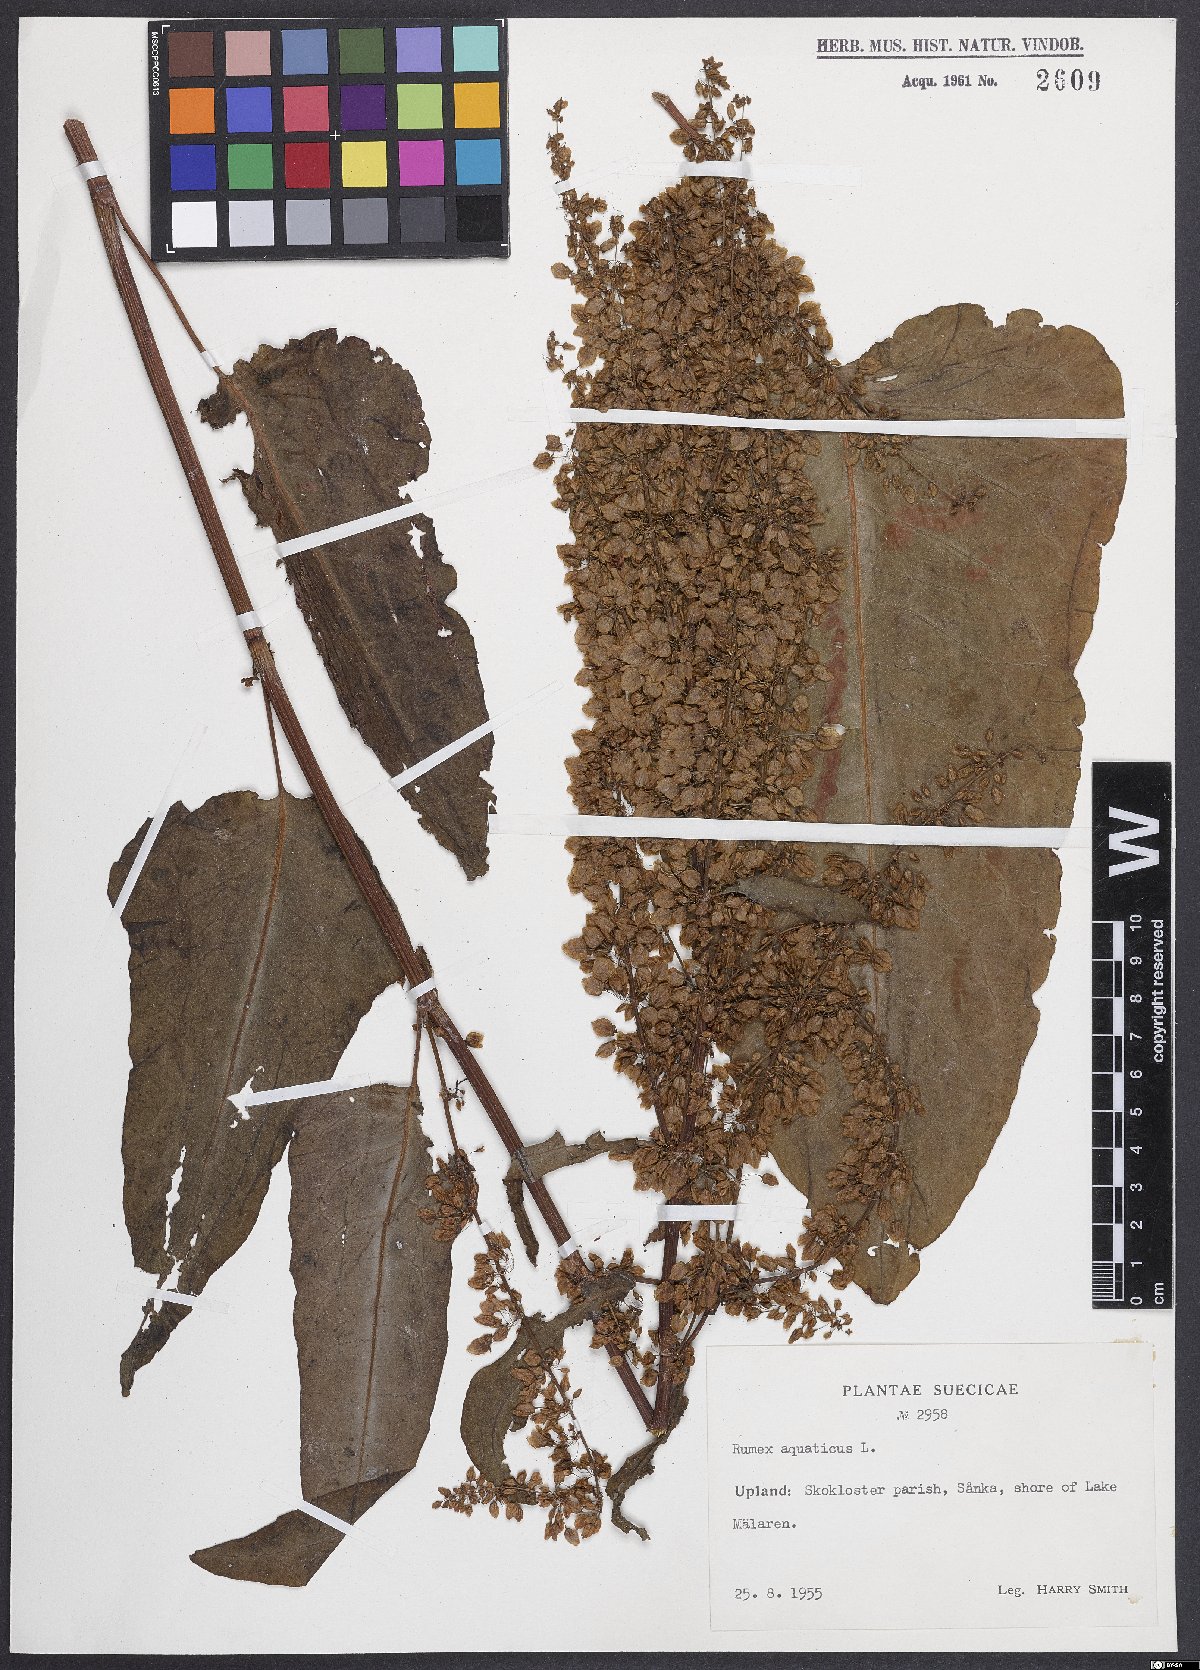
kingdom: Plantae
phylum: Tracheophyta
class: Magnoliopsida
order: Caryophyllales
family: Polygonaceae
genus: Rumex
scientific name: Rumex aquaticus
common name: Scottish dock
